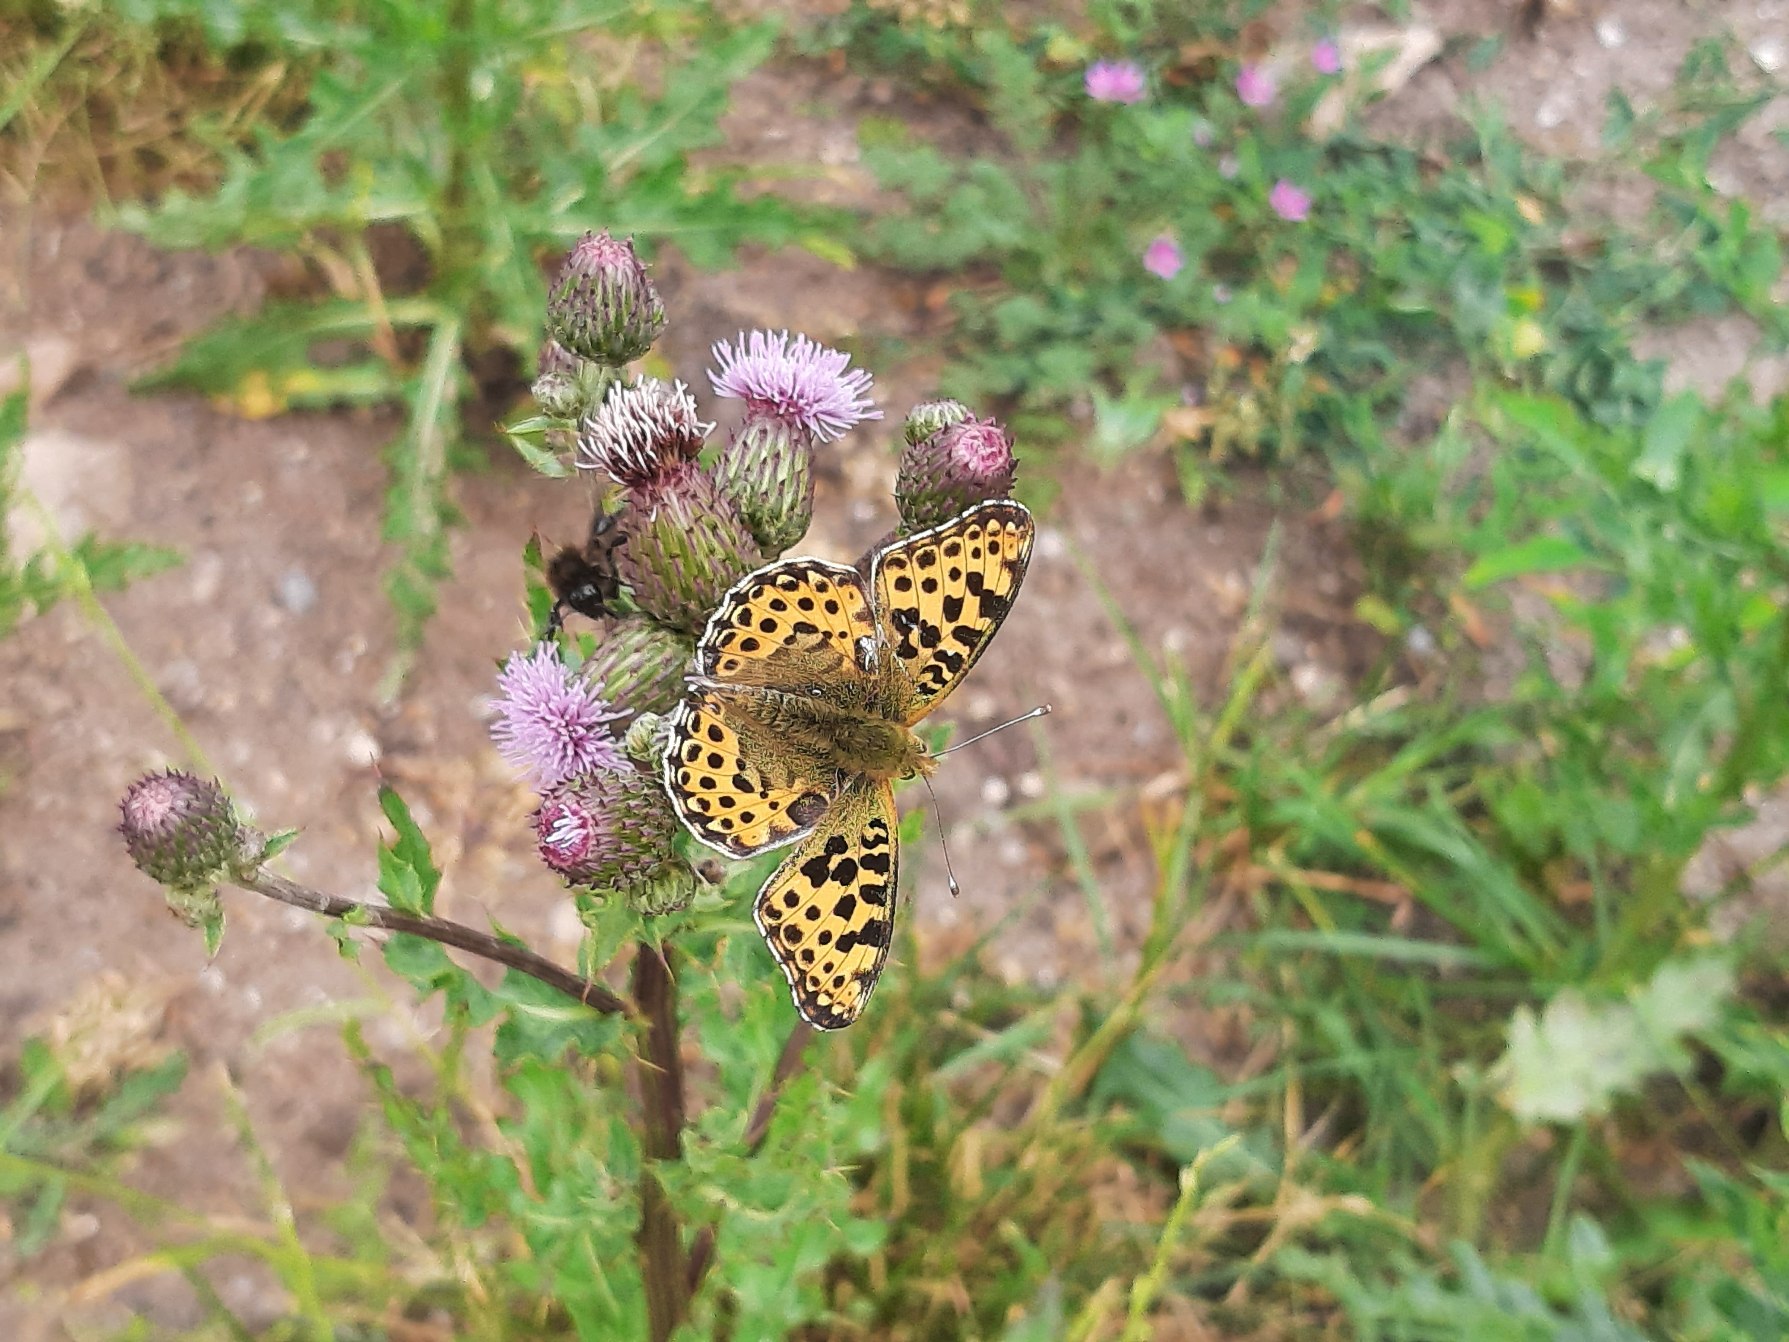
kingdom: Animalia
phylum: Arthropoda
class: Insecta
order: Lepidoptera
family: Nymphalidae
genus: Issoria
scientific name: Issoria lathonia
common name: Storplettet perlemorsommerfugl
